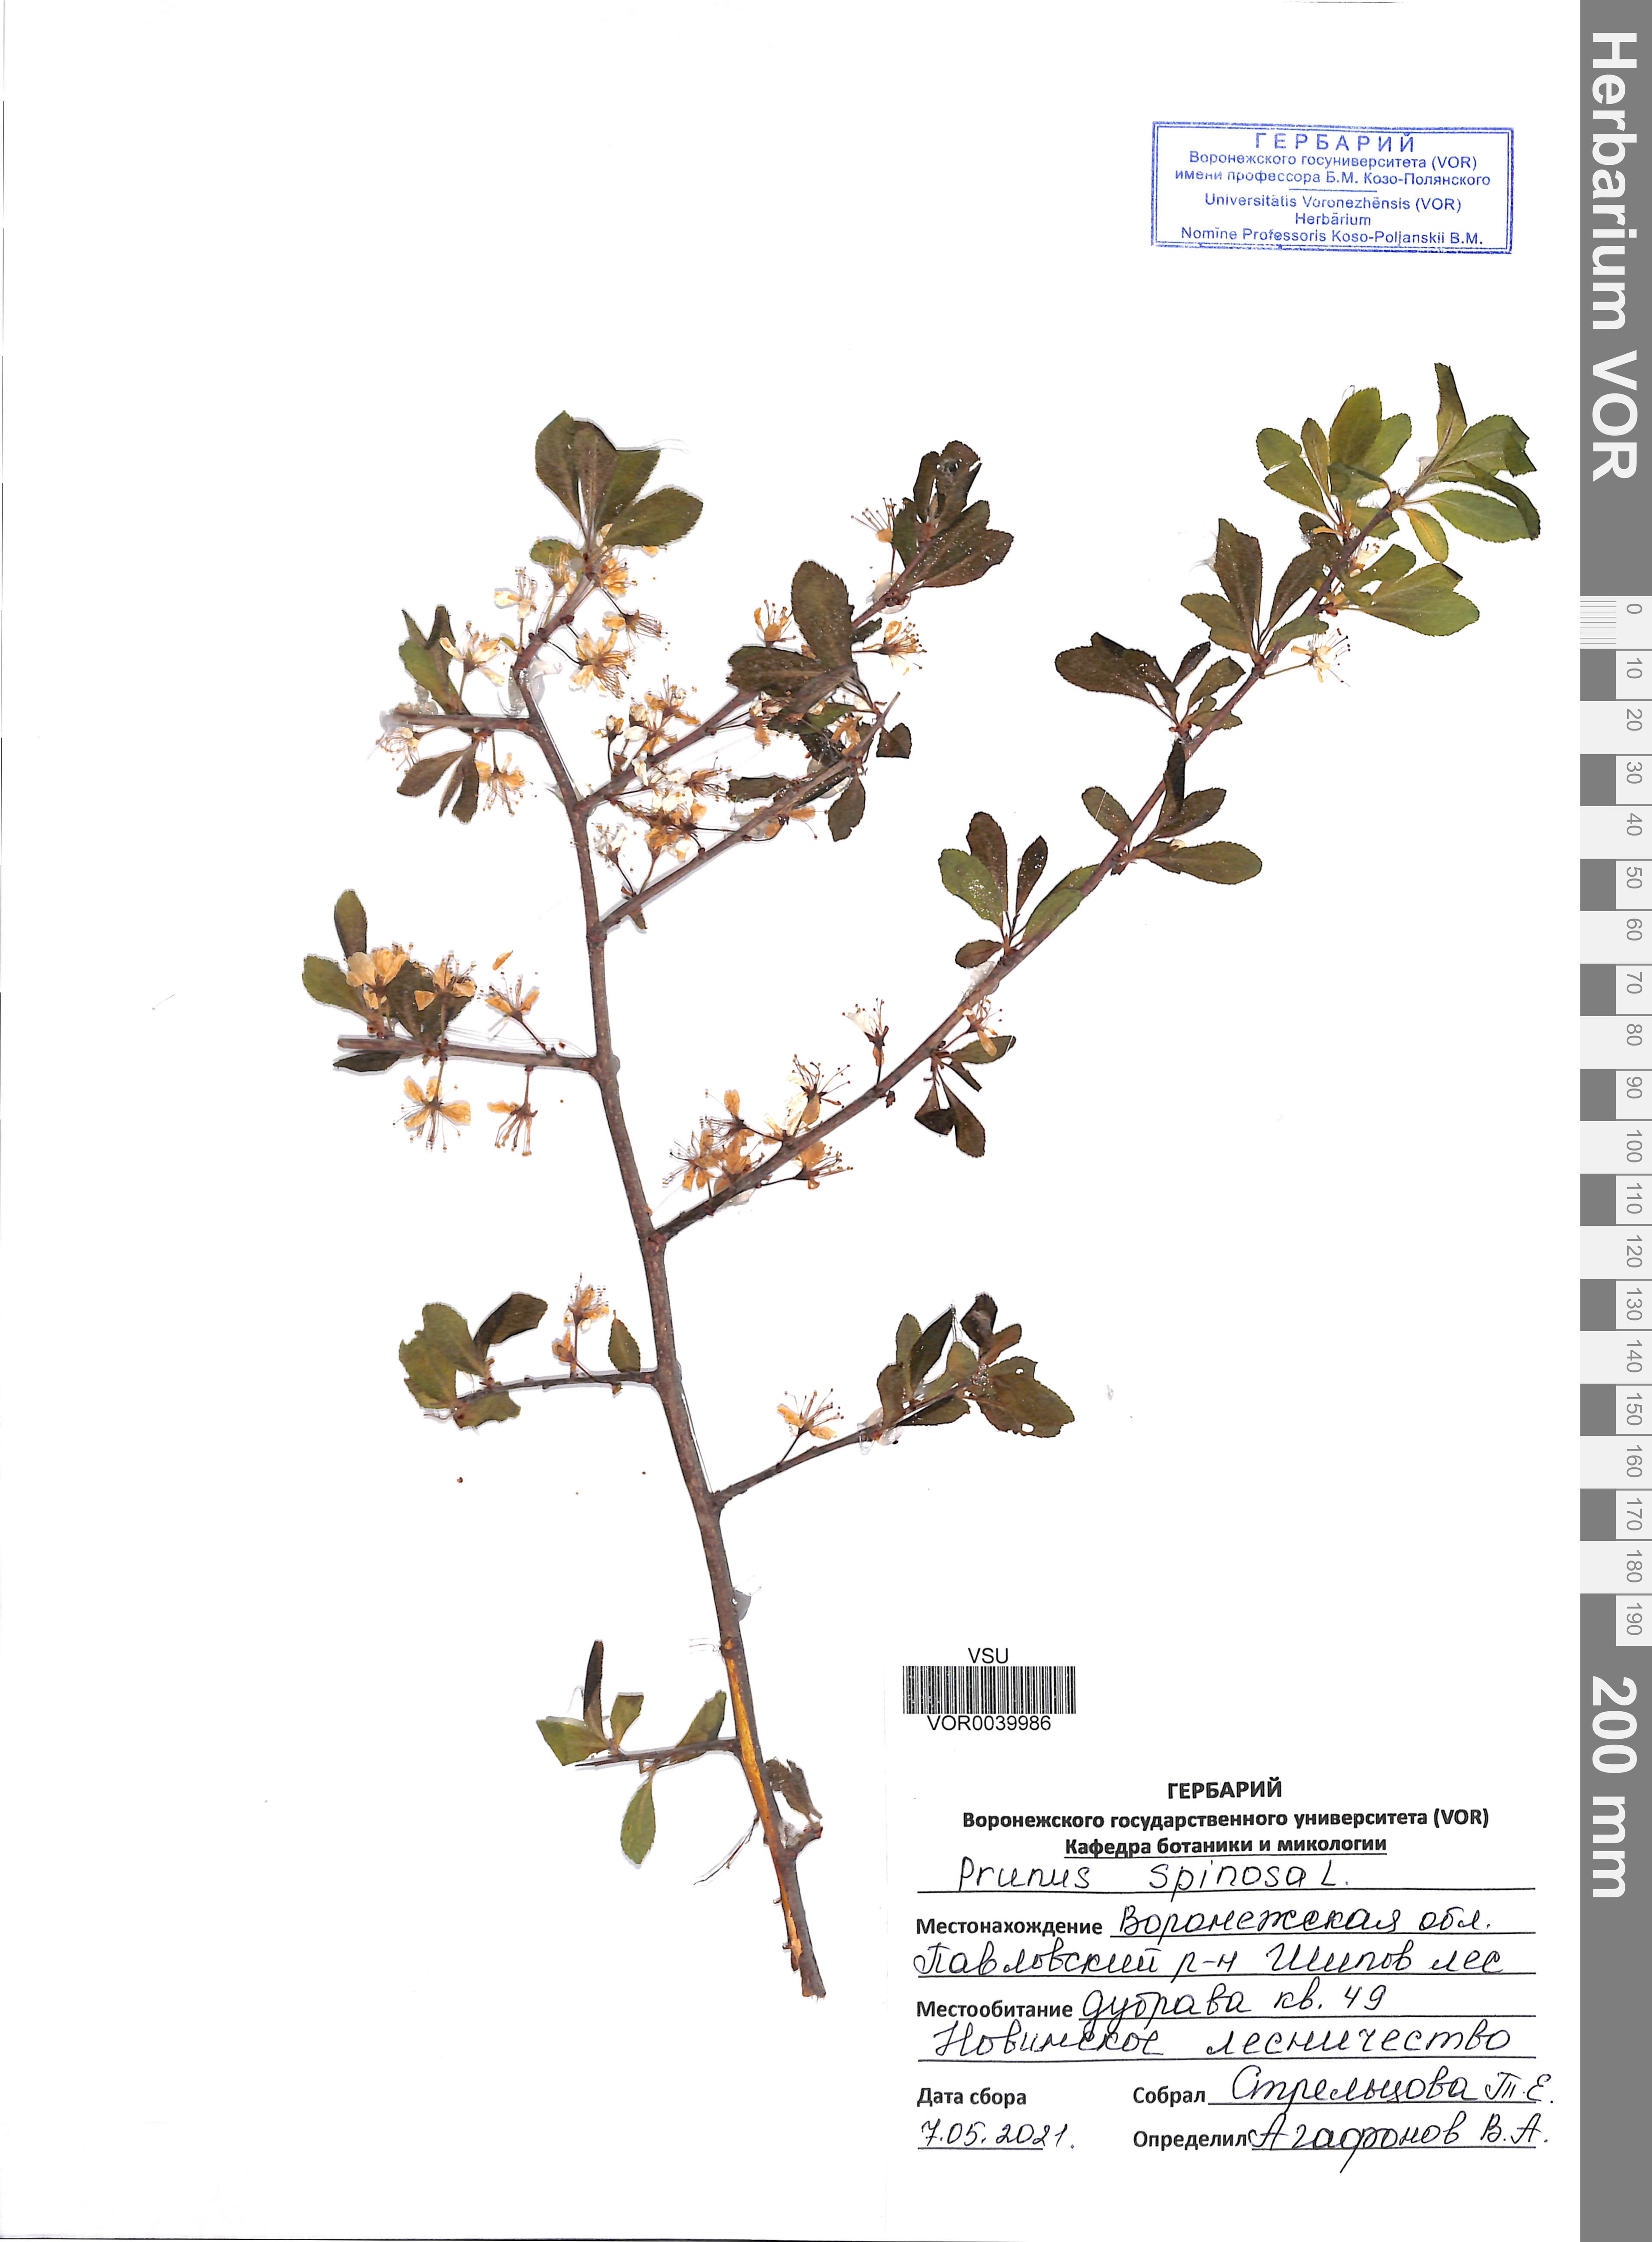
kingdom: Plantae
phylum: Tracheophyta
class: Magnoliopsida
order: Rosales
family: Rosaceae
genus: Prunus
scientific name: Prunus spinosa
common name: Blackthorn
